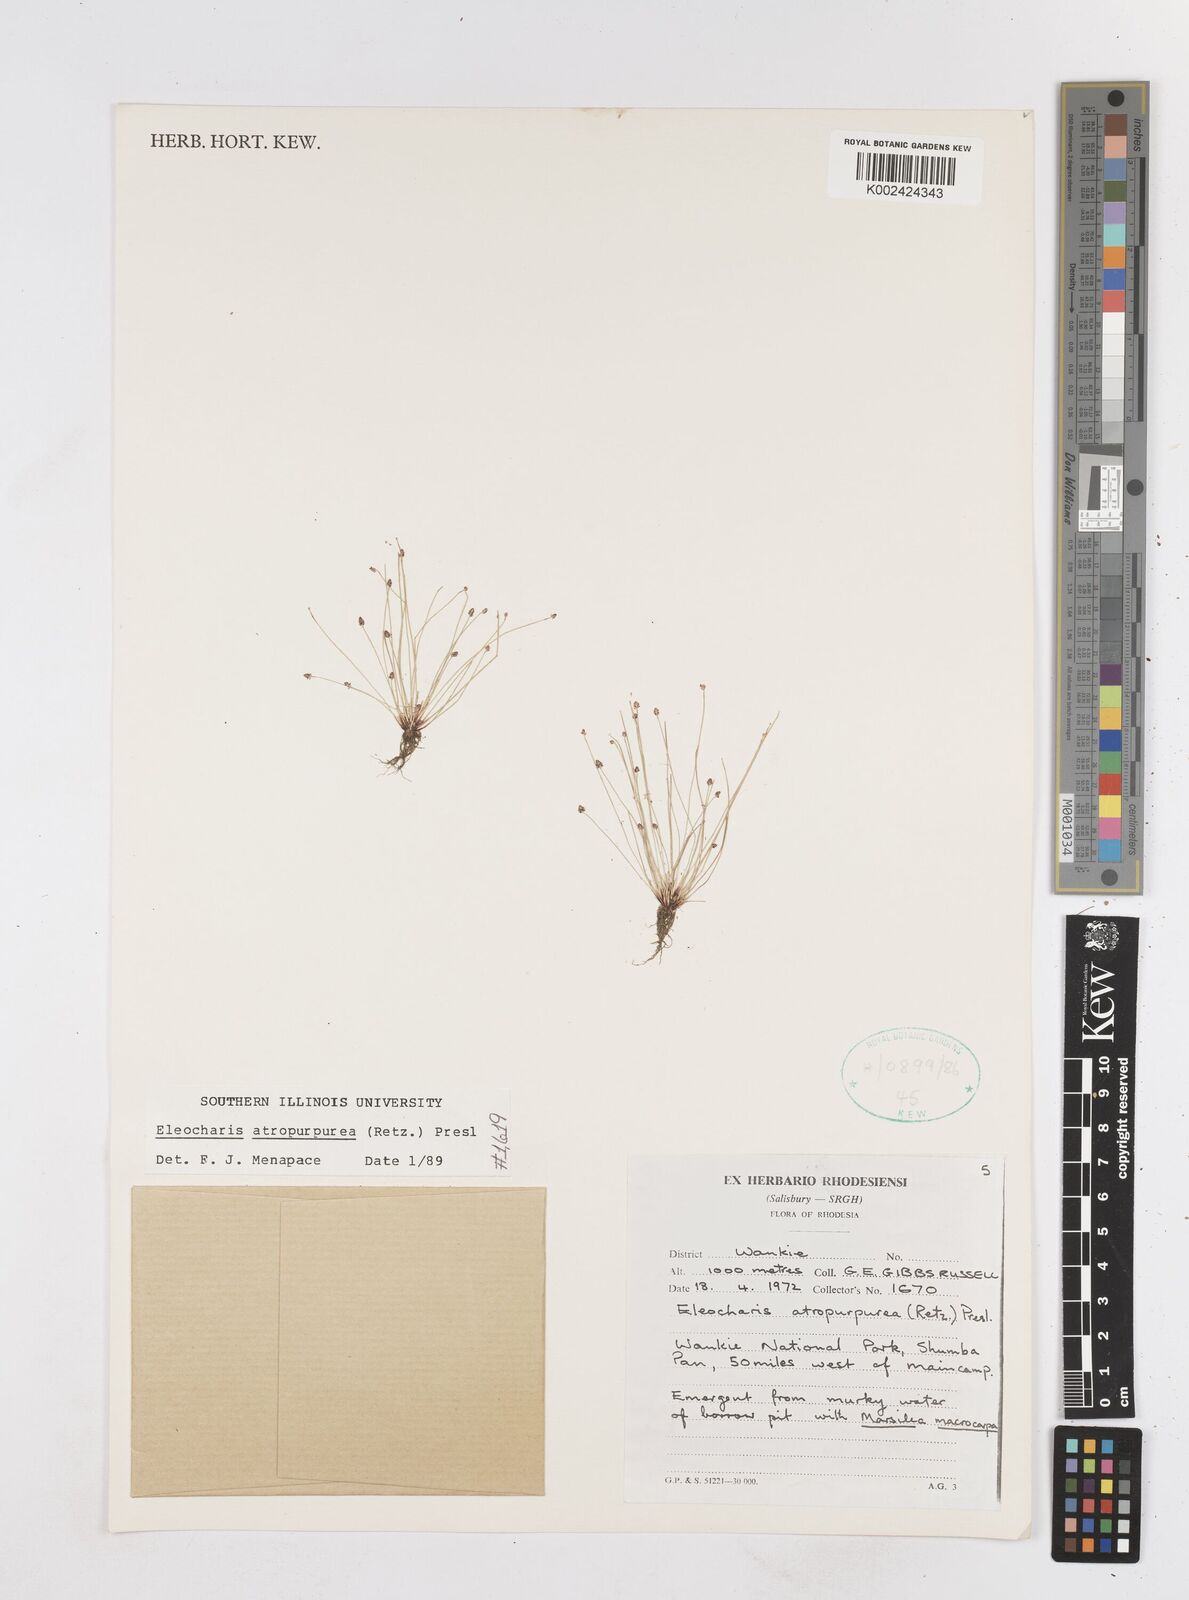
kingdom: Plantae
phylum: Tracheophyta
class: Liliopsida
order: Poales
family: Cyperaceae
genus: Eleocharis
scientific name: Eleocharis atropurpurea
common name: Purple spikerush
